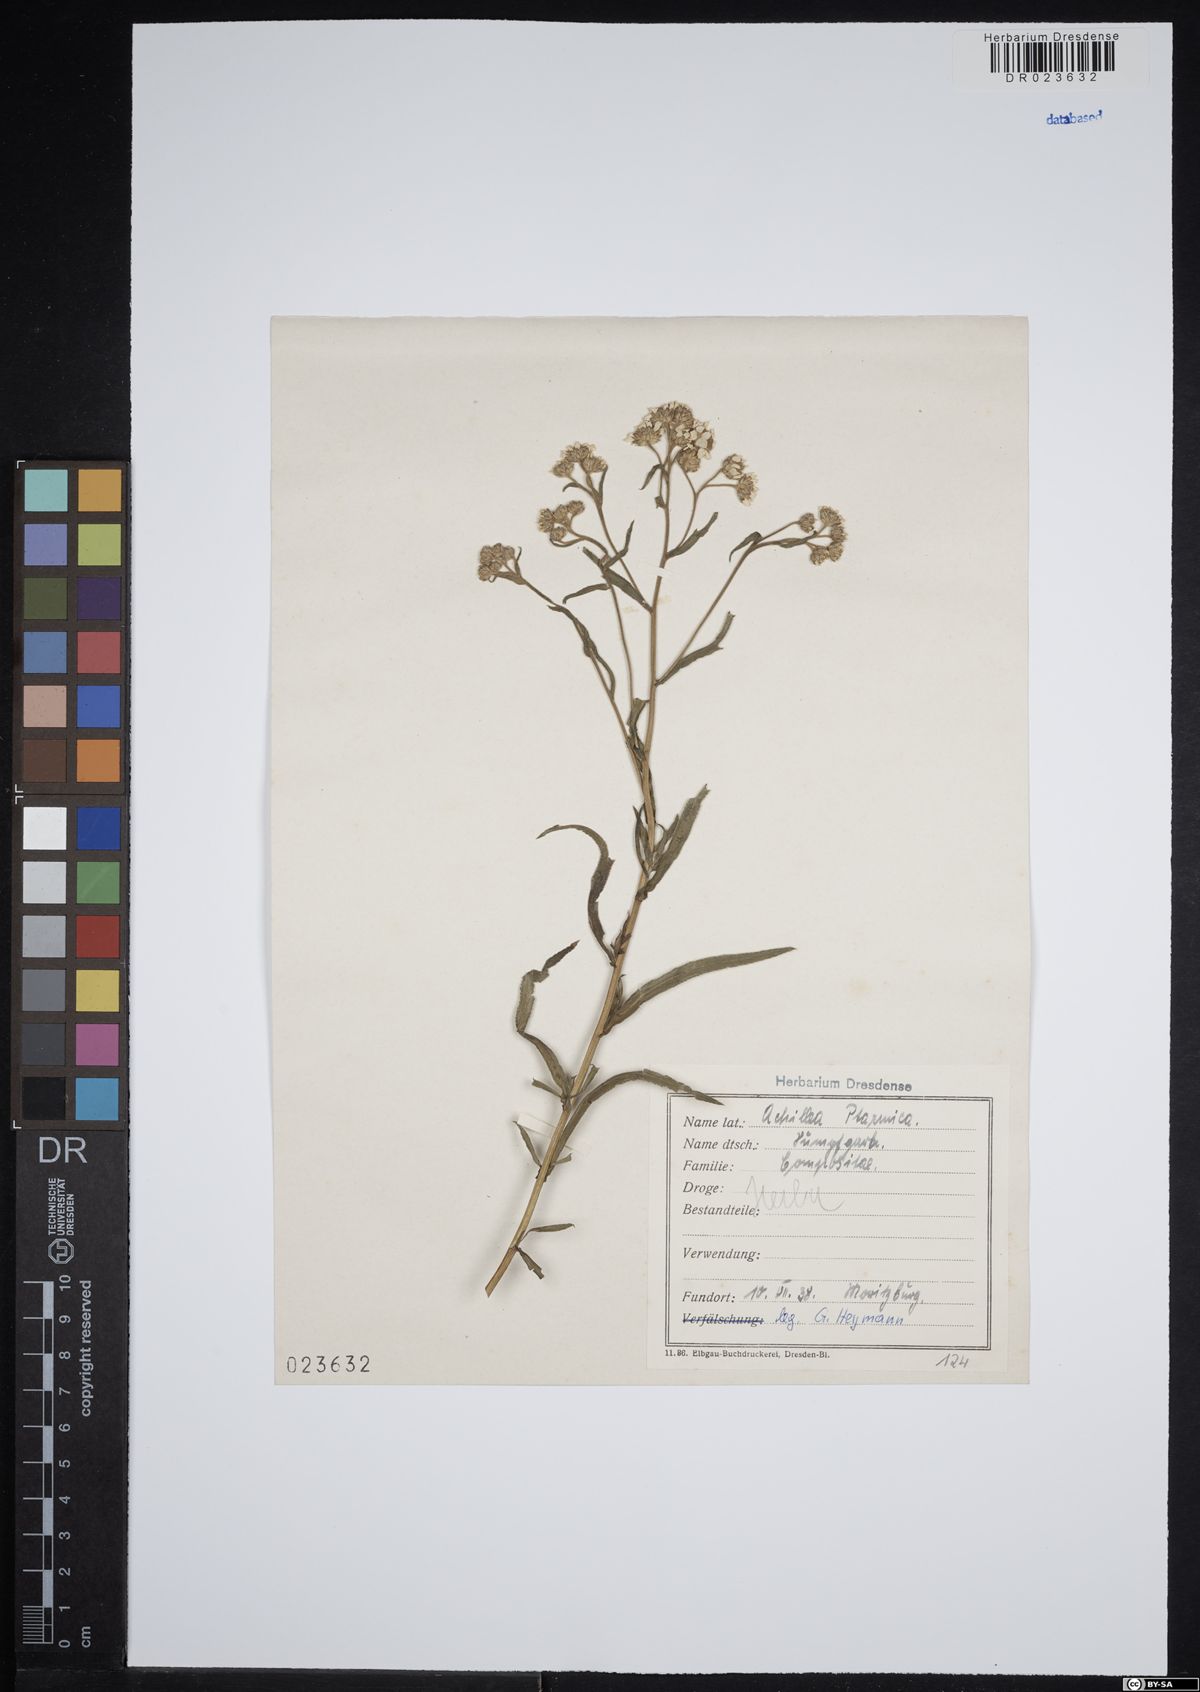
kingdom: Plantae
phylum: Tracheophyta
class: Magnoliopsida
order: Asterales
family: Asteraceae
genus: Achillea
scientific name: Achillea ptarmica
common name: Sneezeweed
